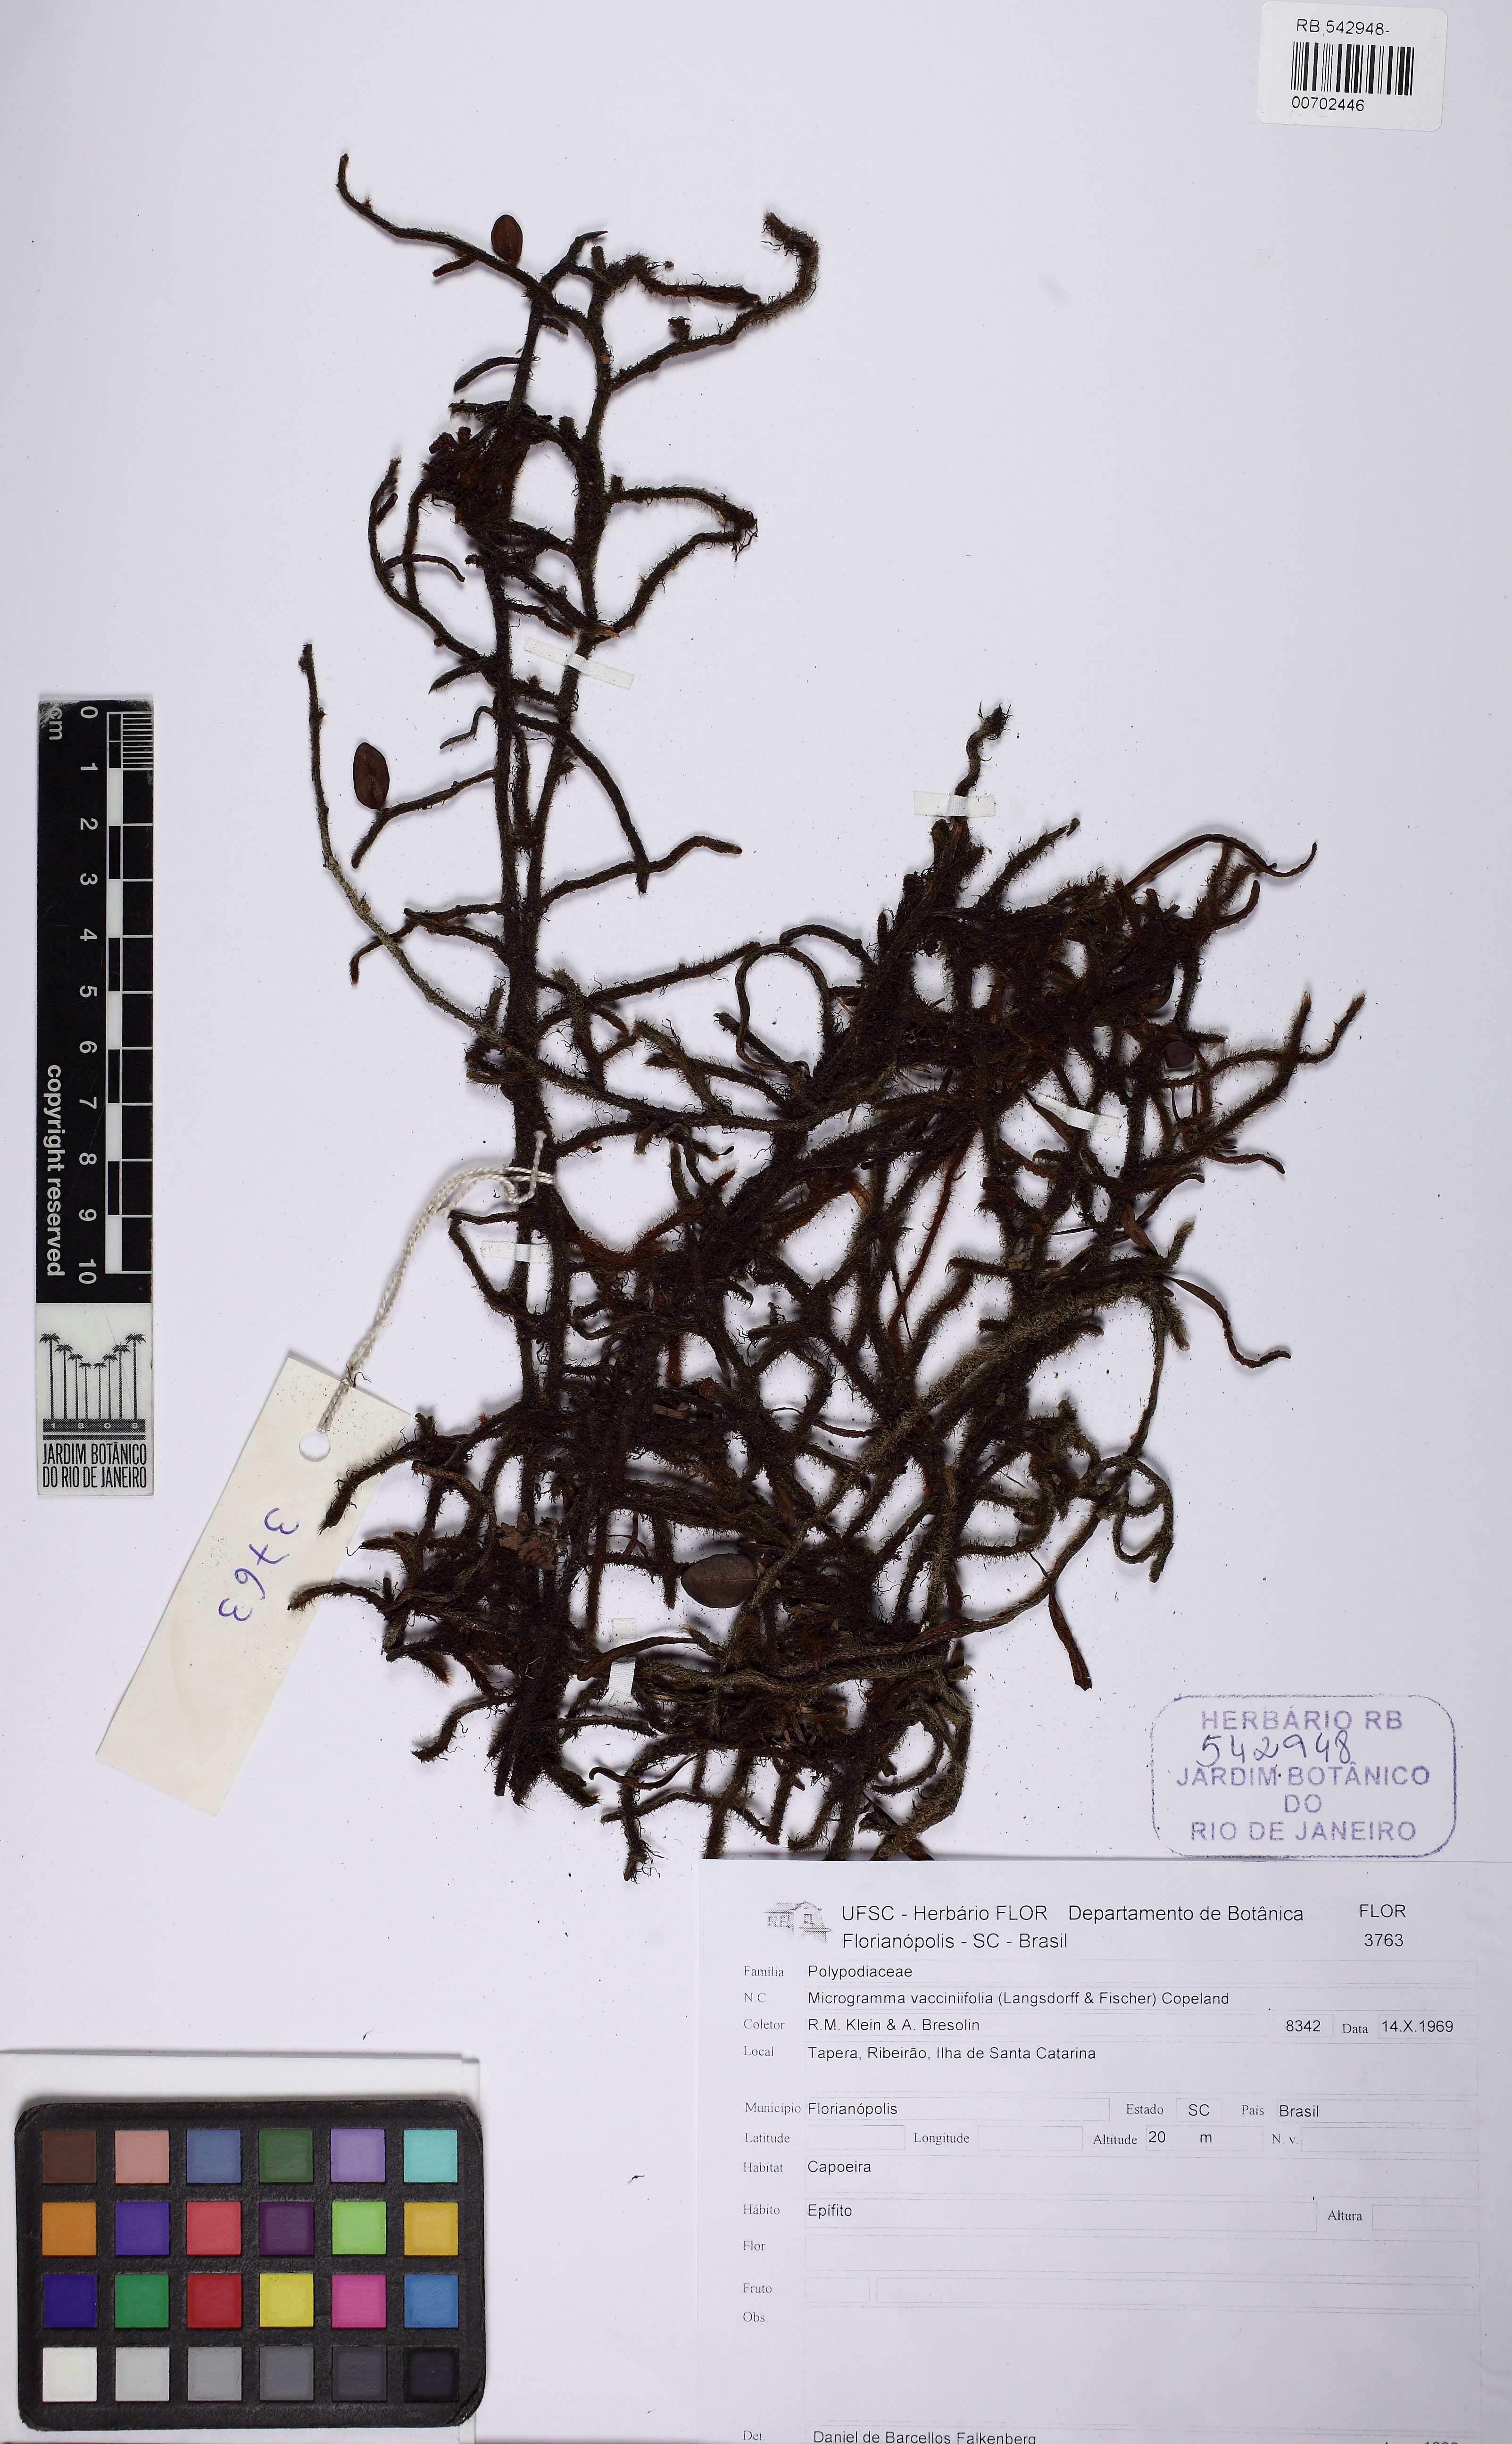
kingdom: Plantae
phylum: Tracheophyta
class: Polypodiopsida
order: Polypodiales
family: Polypodiaceae
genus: Microgramma
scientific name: Microgramma vaccinifolia
